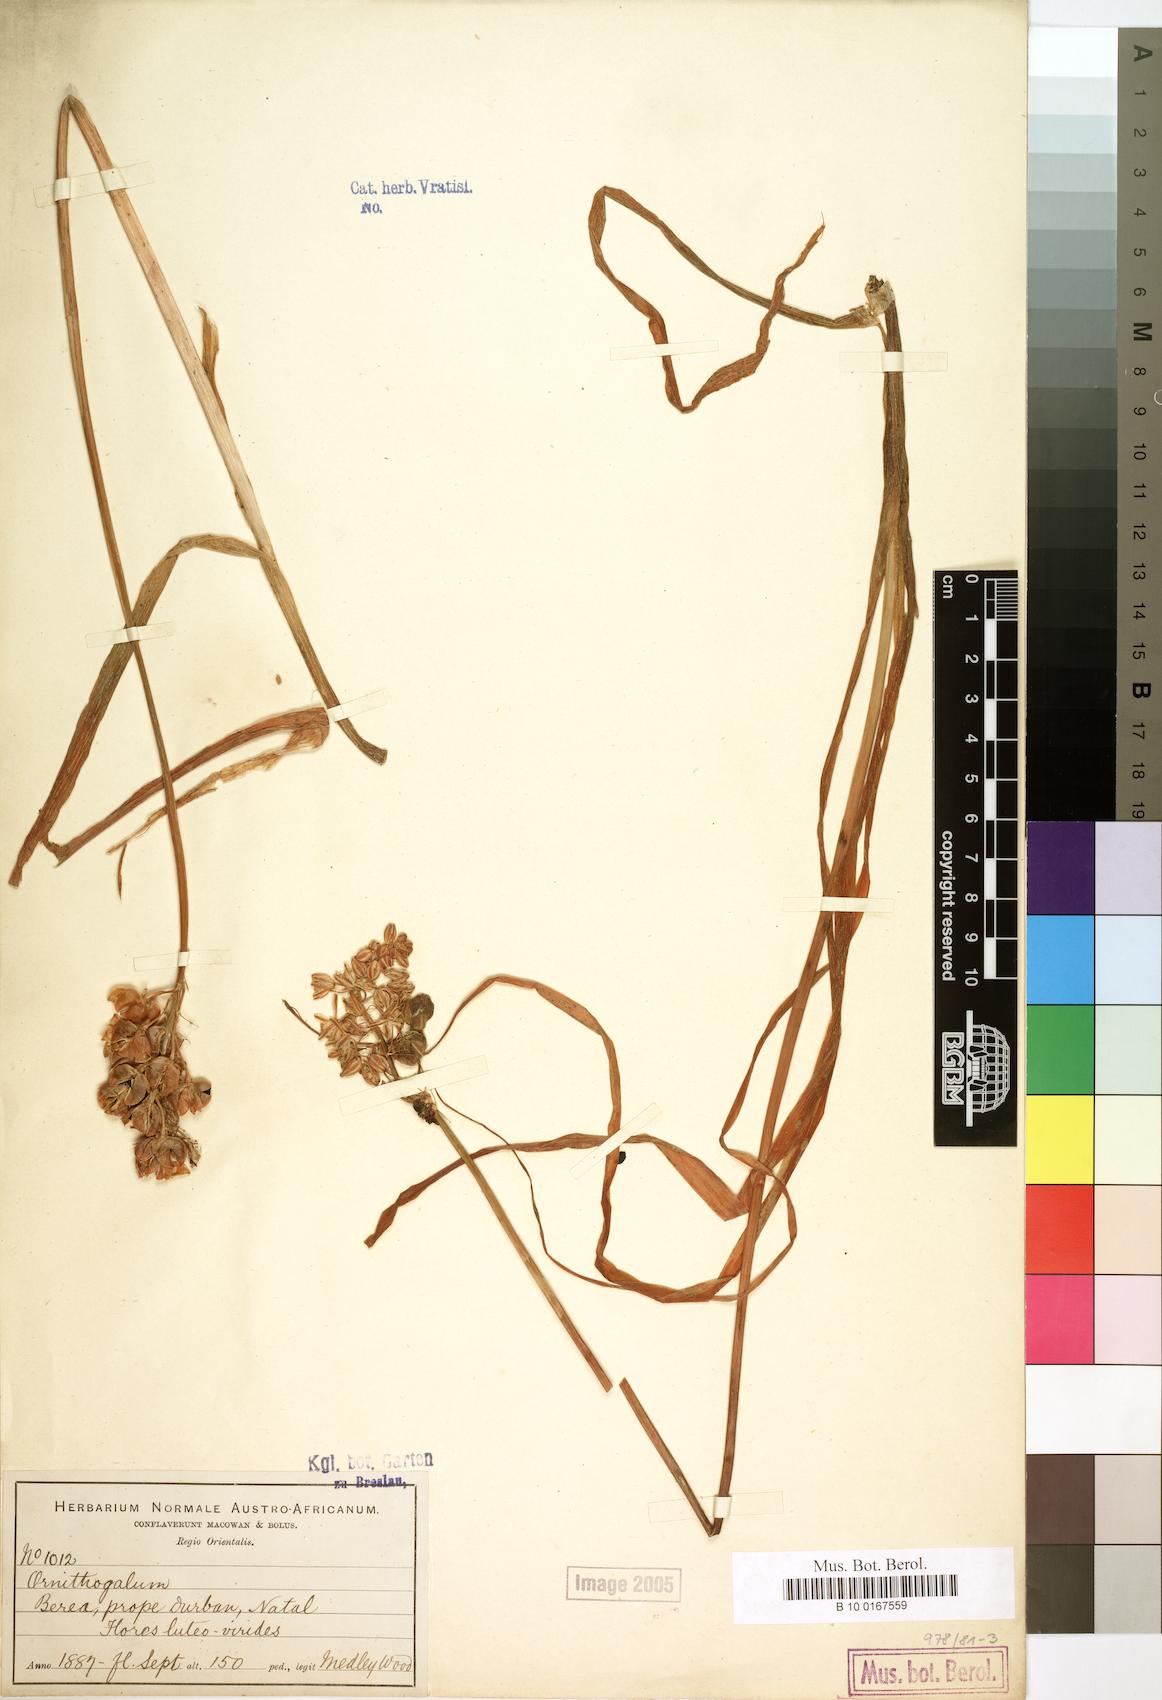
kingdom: Plantae
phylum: Tracheophyta
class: Liliopsida
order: Liliales
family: Liliaceae
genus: Ornithogalum
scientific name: Ornithogalum
